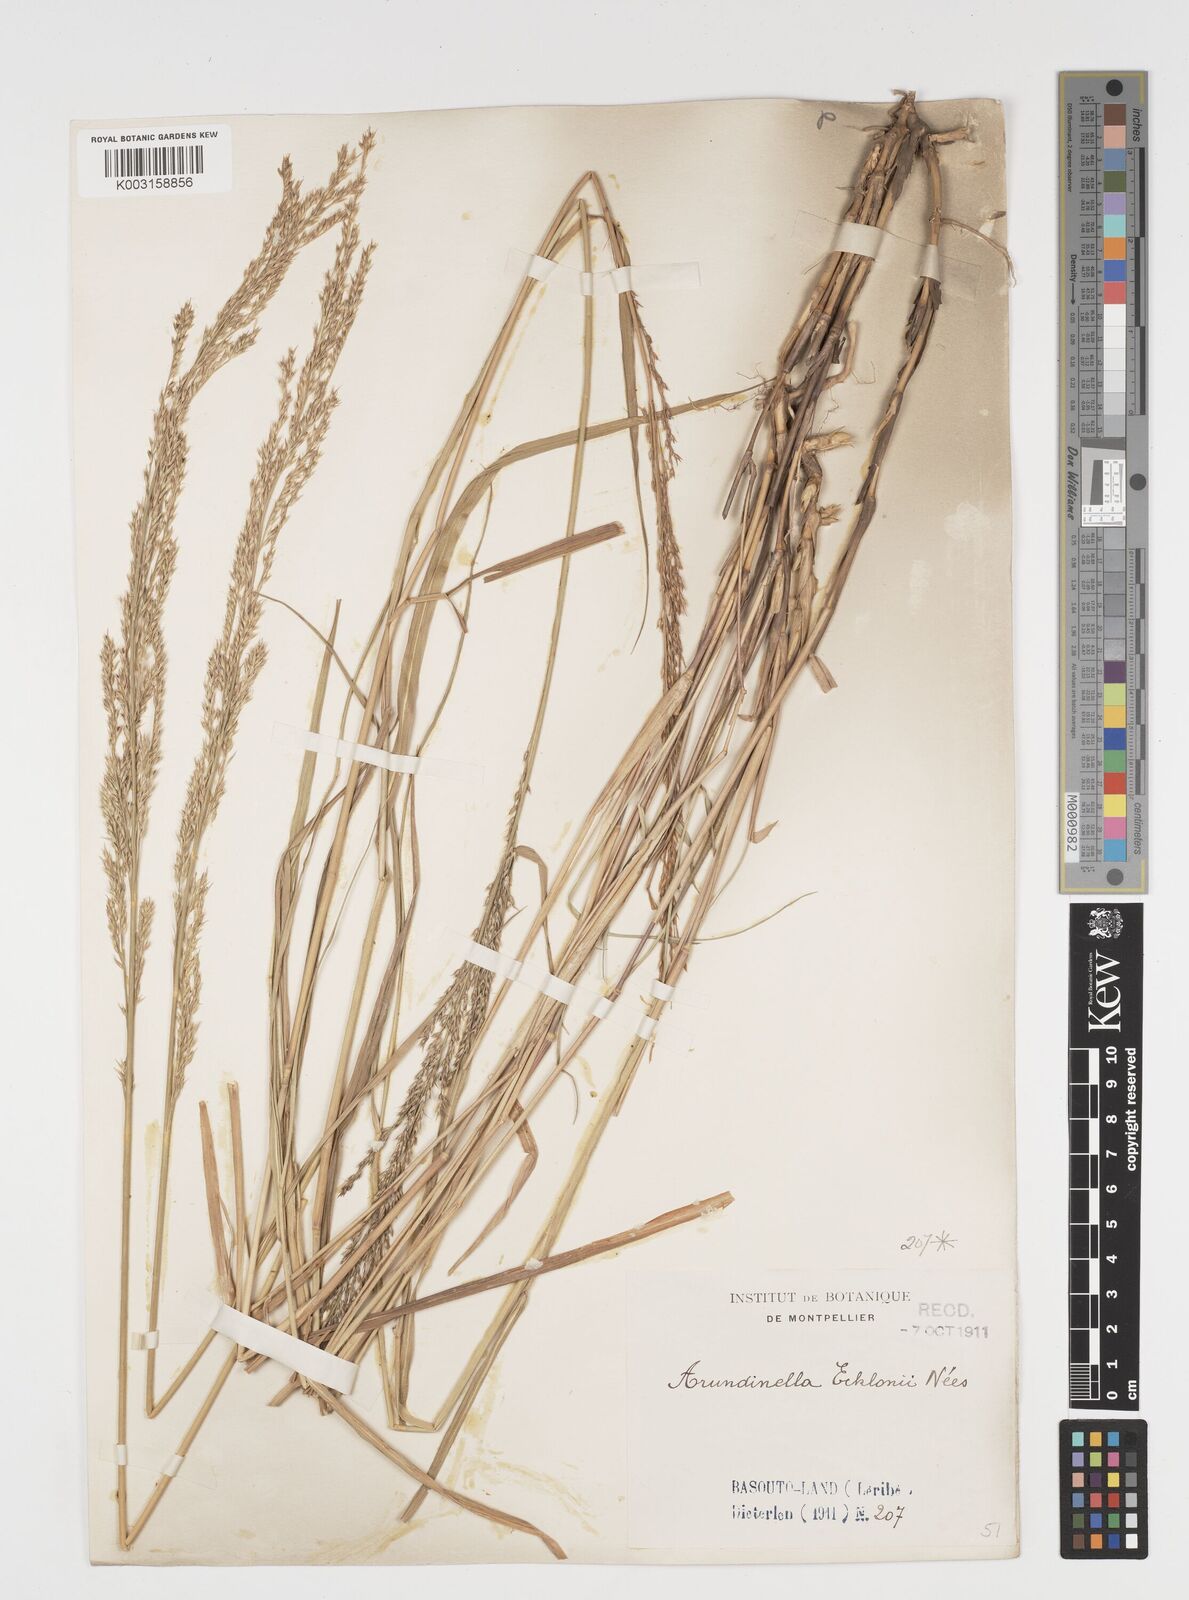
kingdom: Plantae
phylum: Tracheophyta
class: Liliopsida
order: Poales
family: Poaceae
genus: Arundinella
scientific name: Arundinella nepalensis
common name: Reed grass
